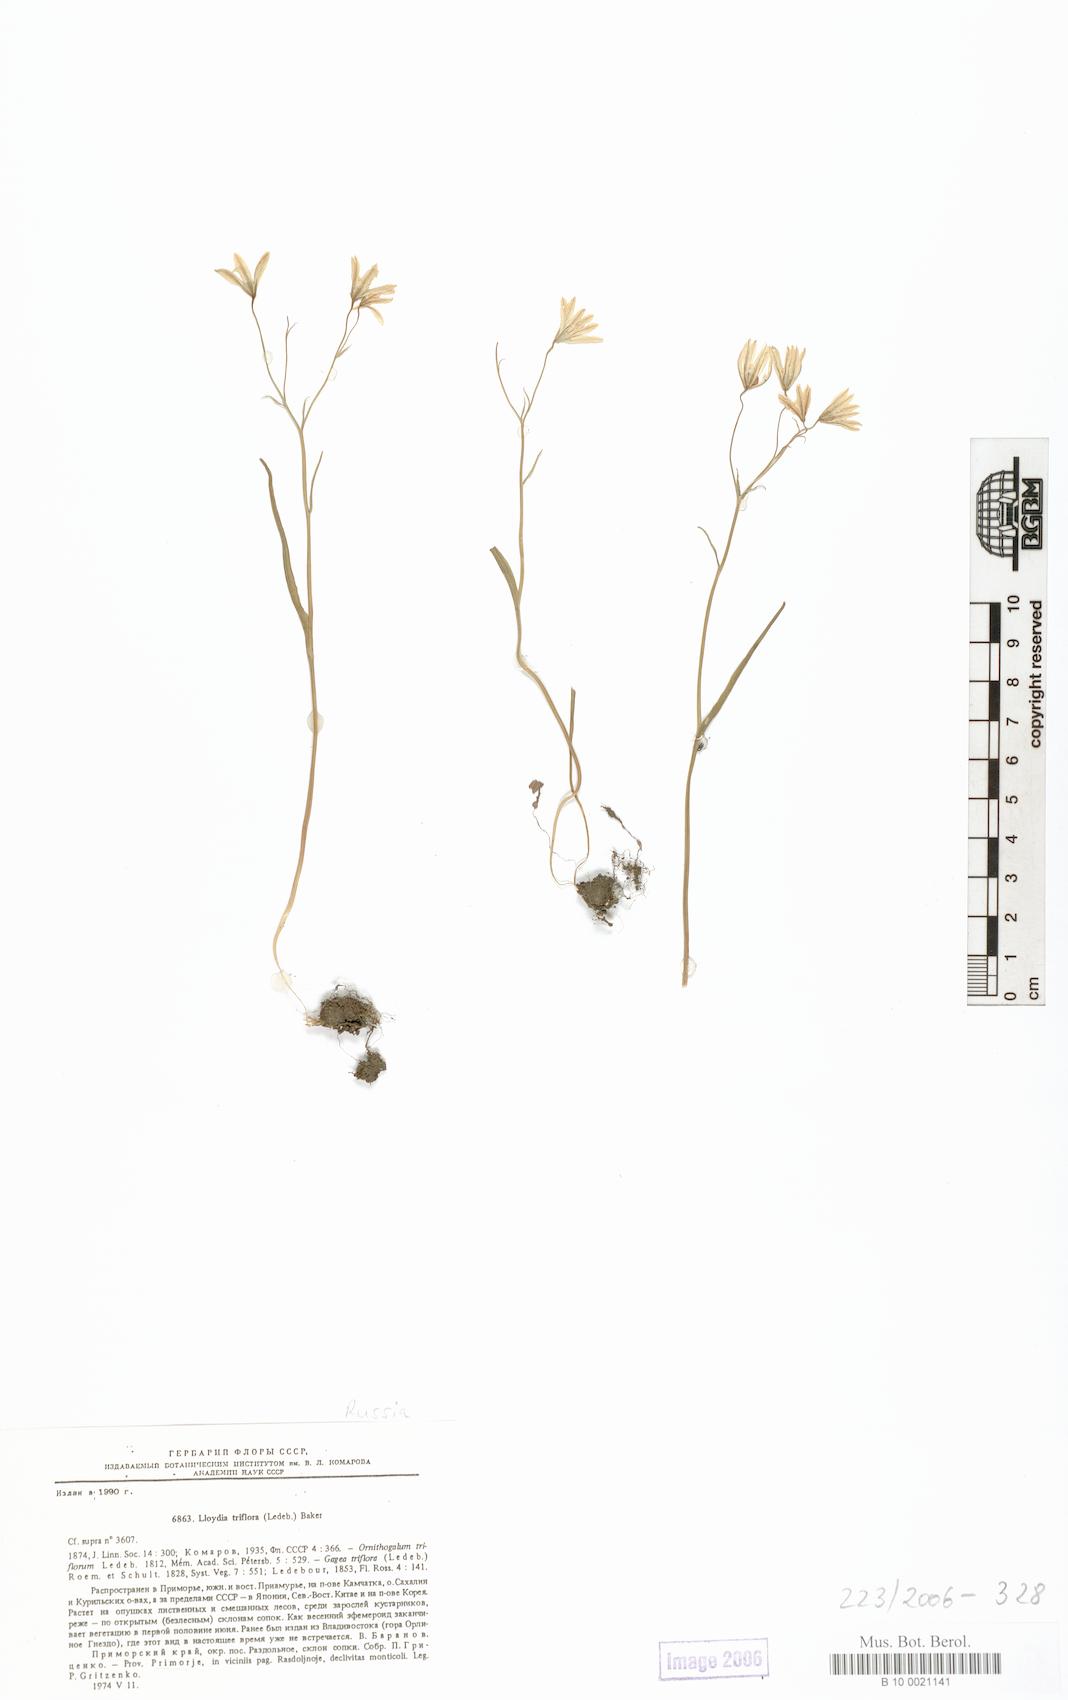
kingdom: Plantae
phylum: Tracheophyta
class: Liliopsida
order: Liliales
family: Liliaceae
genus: Gagea
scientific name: Gagea triflora
